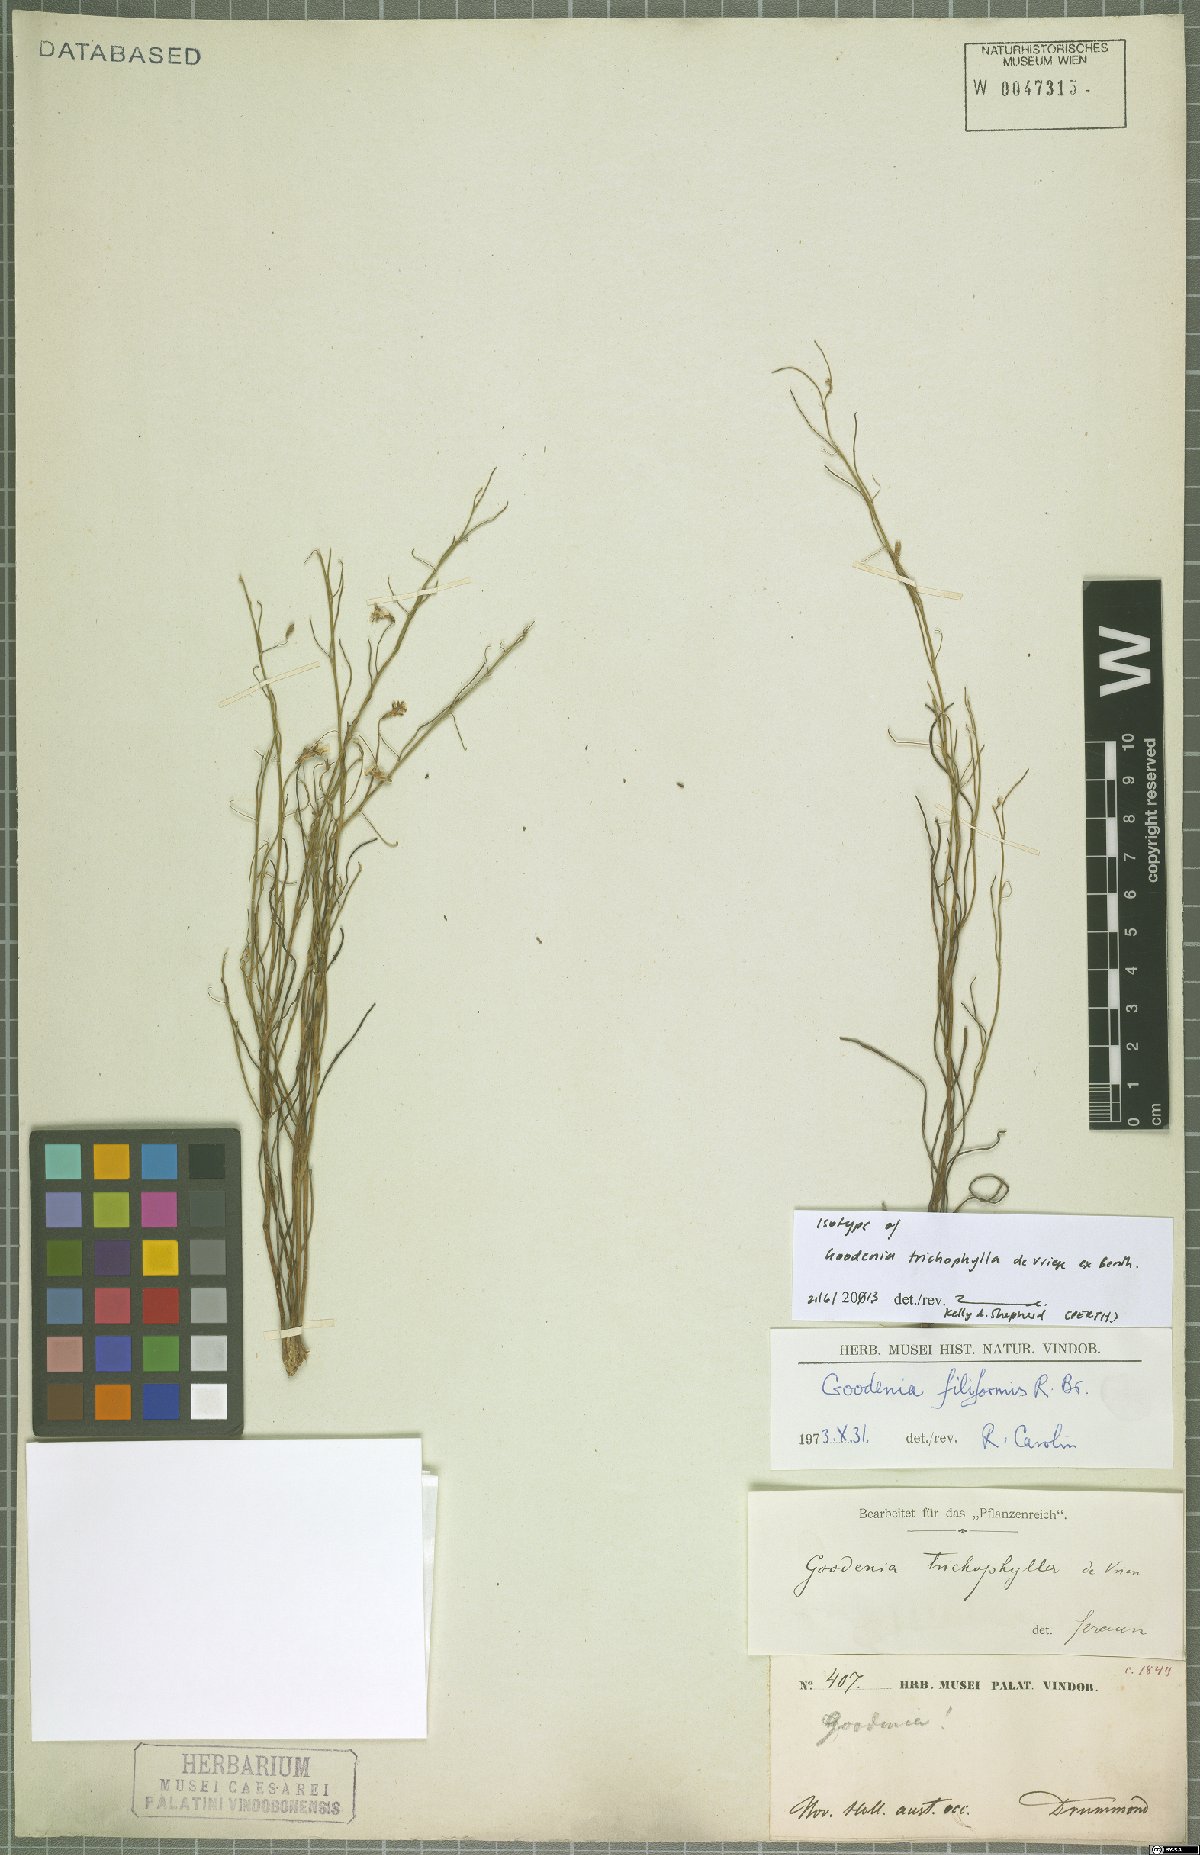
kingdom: Plantae
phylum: Tracheophyta
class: Magnoliopsida
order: Asterales
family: Goodeniaceae
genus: Goodenia
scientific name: Goodenia filiformis
